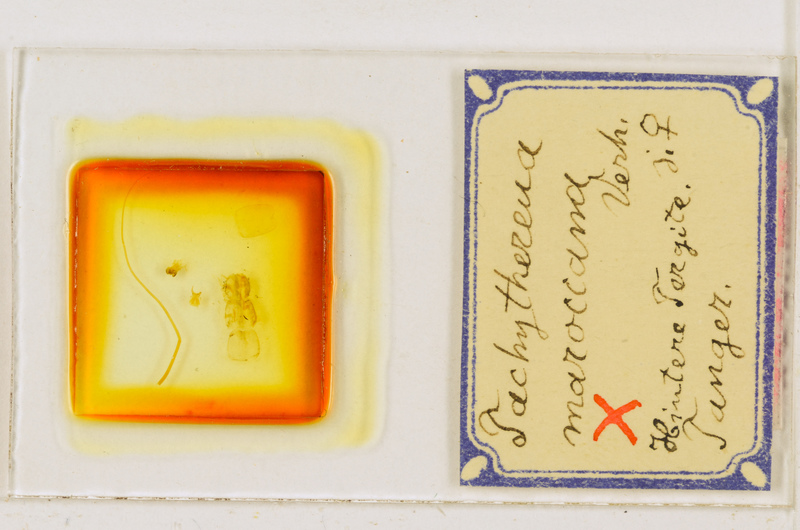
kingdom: Animalia
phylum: Arthropoda
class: Chilopoda
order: Scutigeromorpha
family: Scutigeridae
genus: Tachythereua
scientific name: Tachythereua hispanica
